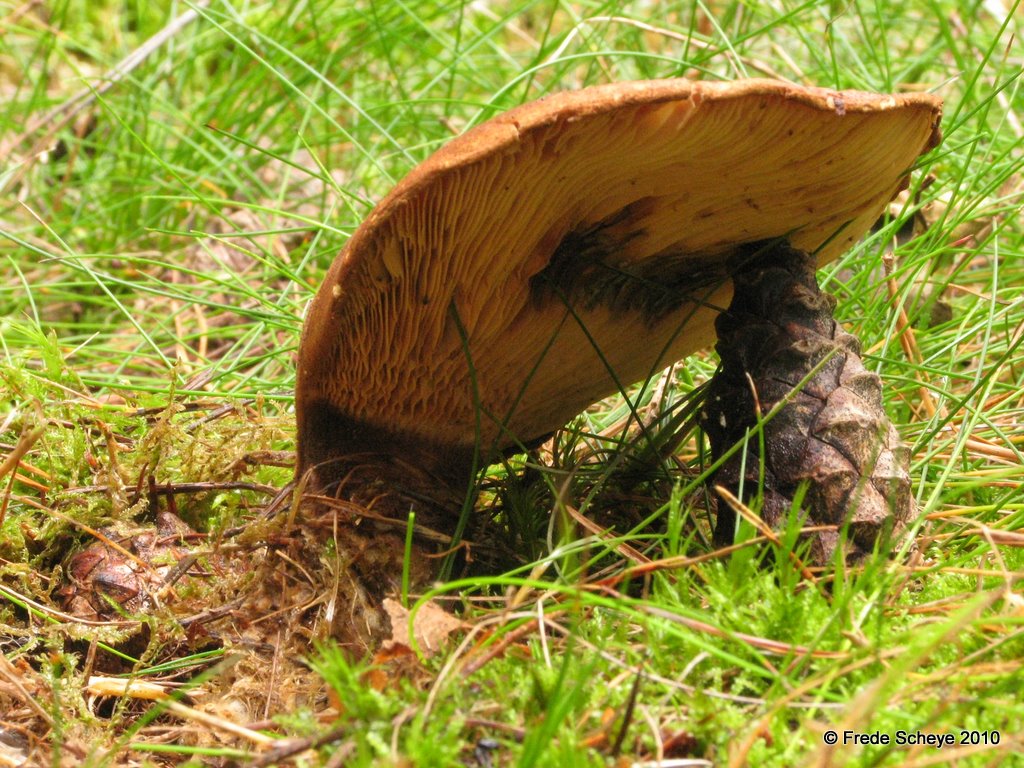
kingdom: Fungi
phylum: Basidiomycota
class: Agaricomycetes
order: Boletales
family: Tapinellaceae
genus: Tapinella
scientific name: Tapinella atrotomentosa
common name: sortfiltet viftesvamp
